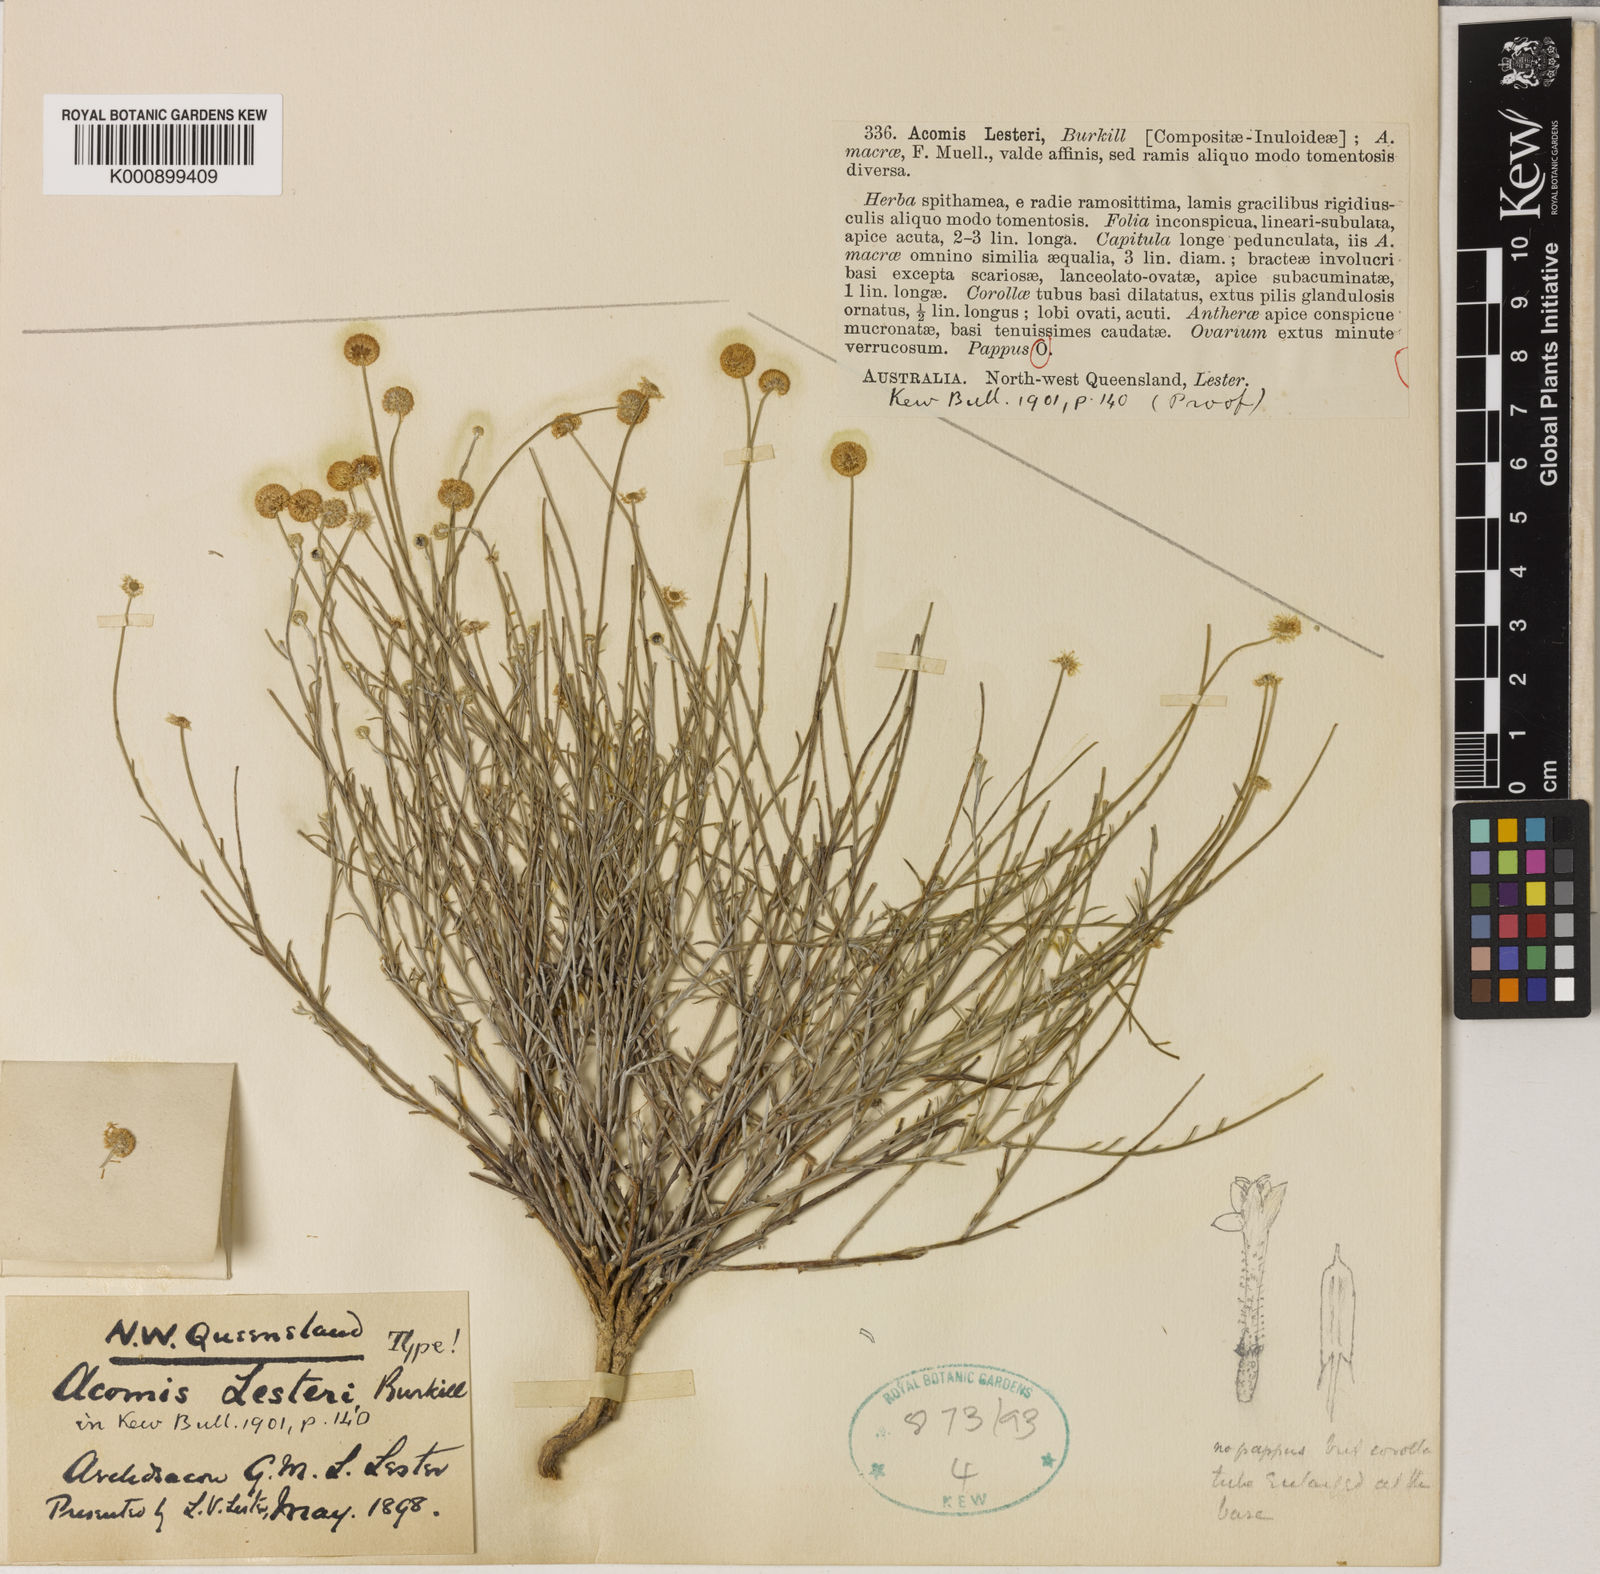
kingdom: Plantae
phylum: Tracheophyta
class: Magnoliopsida
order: Asterales
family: Asteraceae
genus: Acomis
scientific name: Acomis acoma
